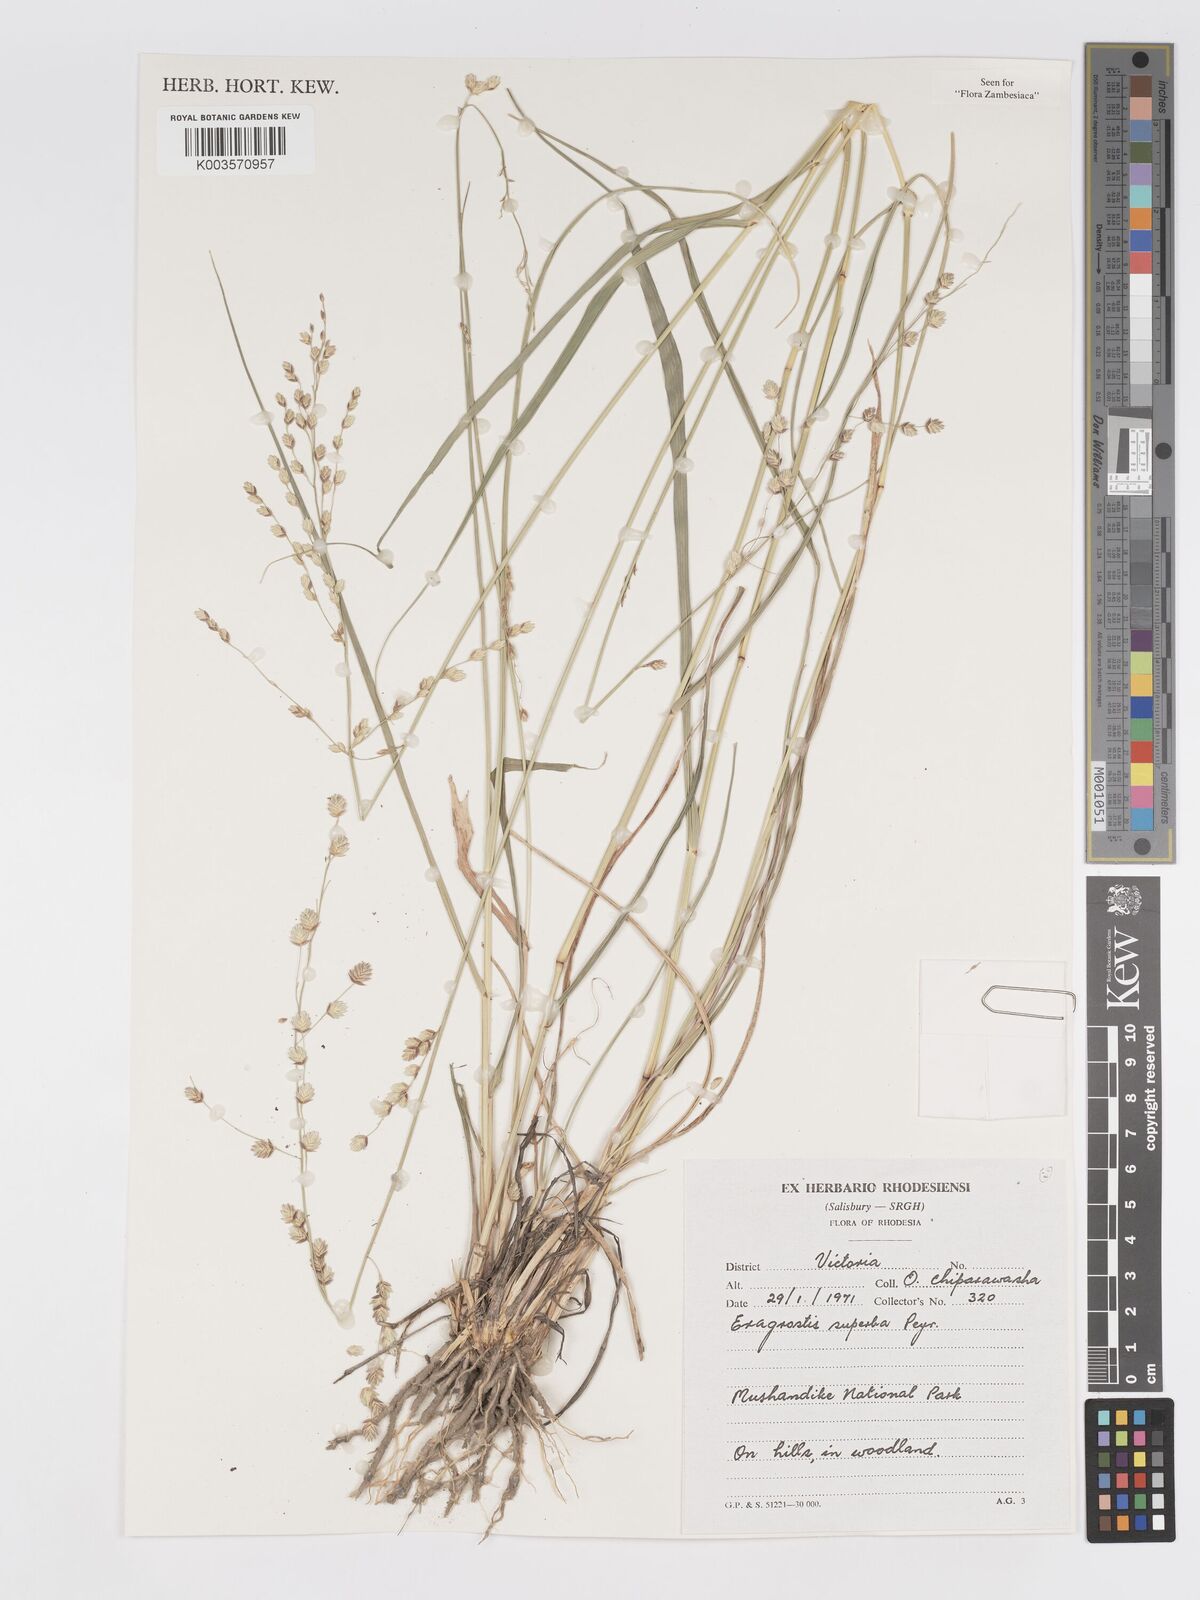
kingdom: Plantae
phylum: Tracheophyta
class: Liliopsida
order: Poales
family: Poaceae
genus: Eragrostis
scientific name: Eragrostis superba
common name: Wilman lovegrass
